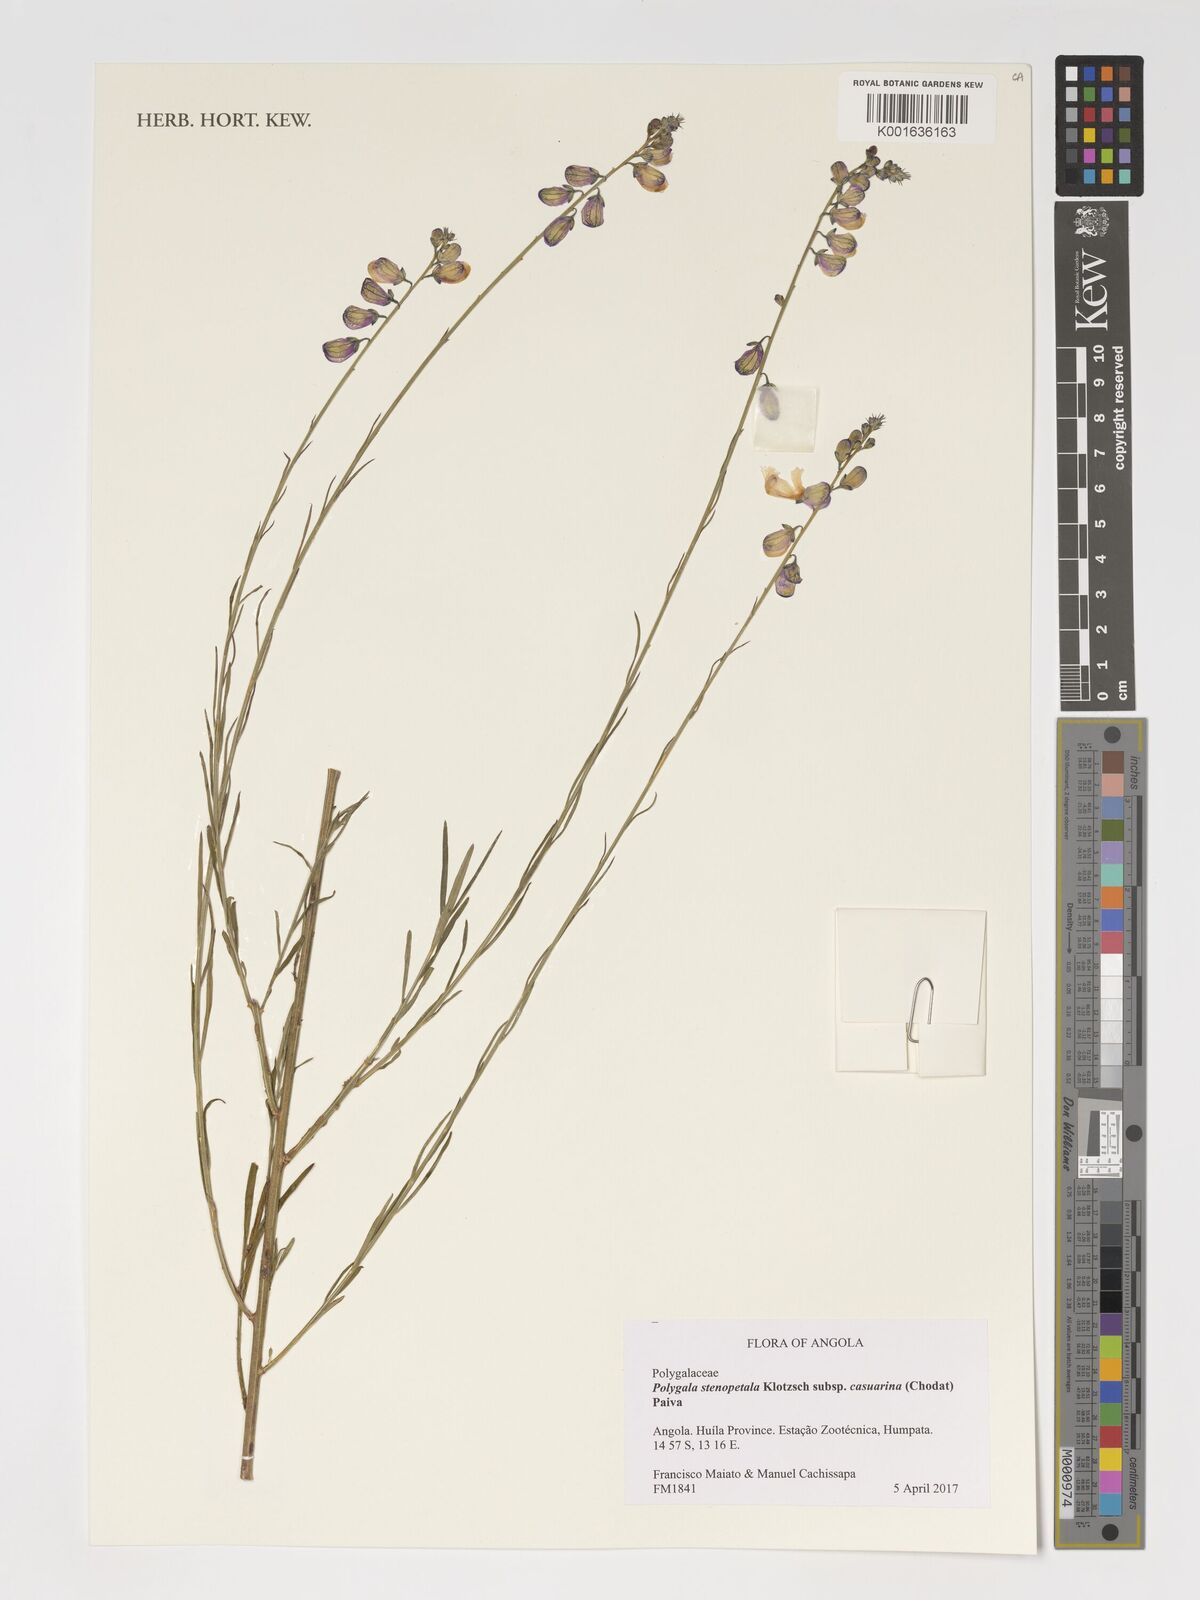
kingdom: Plantae
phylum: Tracheophyta
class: Magnoliopsida
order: Fabales
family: Polygalaceae
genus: Polygala
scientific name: Polygala stenopetala
